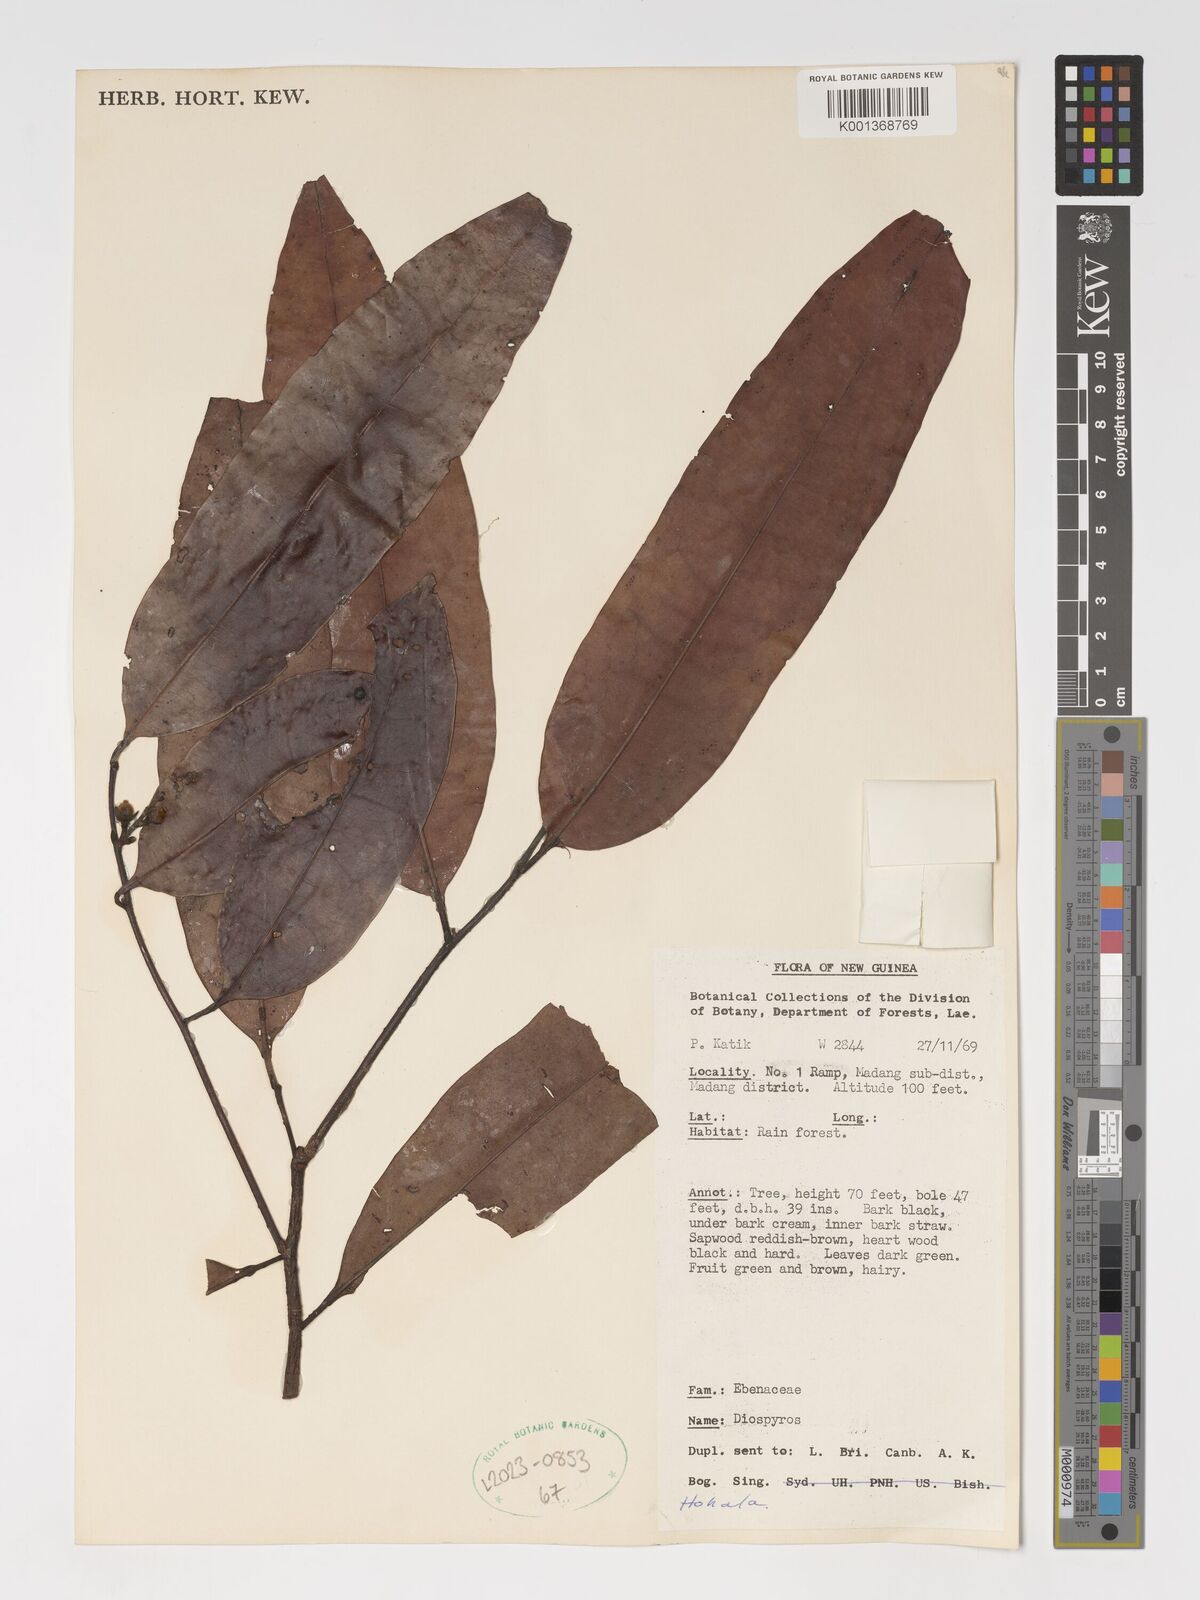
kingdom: Plantae
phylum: Tracheophyta
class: Magnoliopsida
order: Ericales
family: Ebenaceae
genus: Diospyros
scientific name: Diospyros
